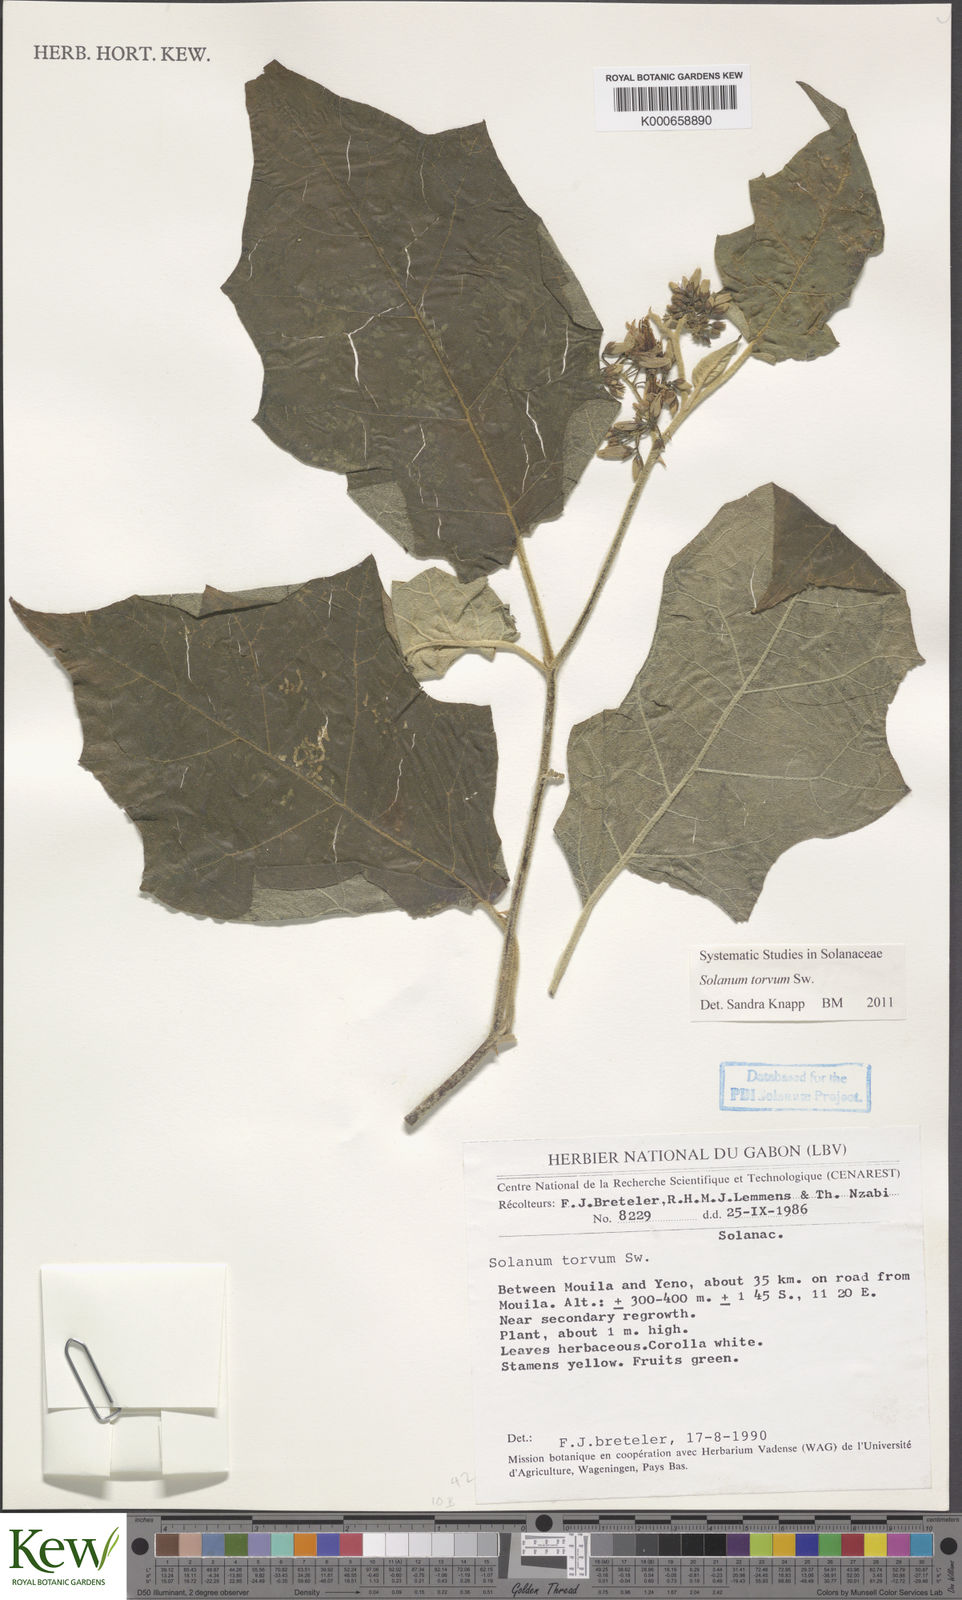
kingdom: Plantae
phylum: Tracheophyta
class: Magnoliopsida
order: Solanales
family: Solanaceae
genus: Solanum
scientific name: Solanum torvum
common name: Turkey berry
